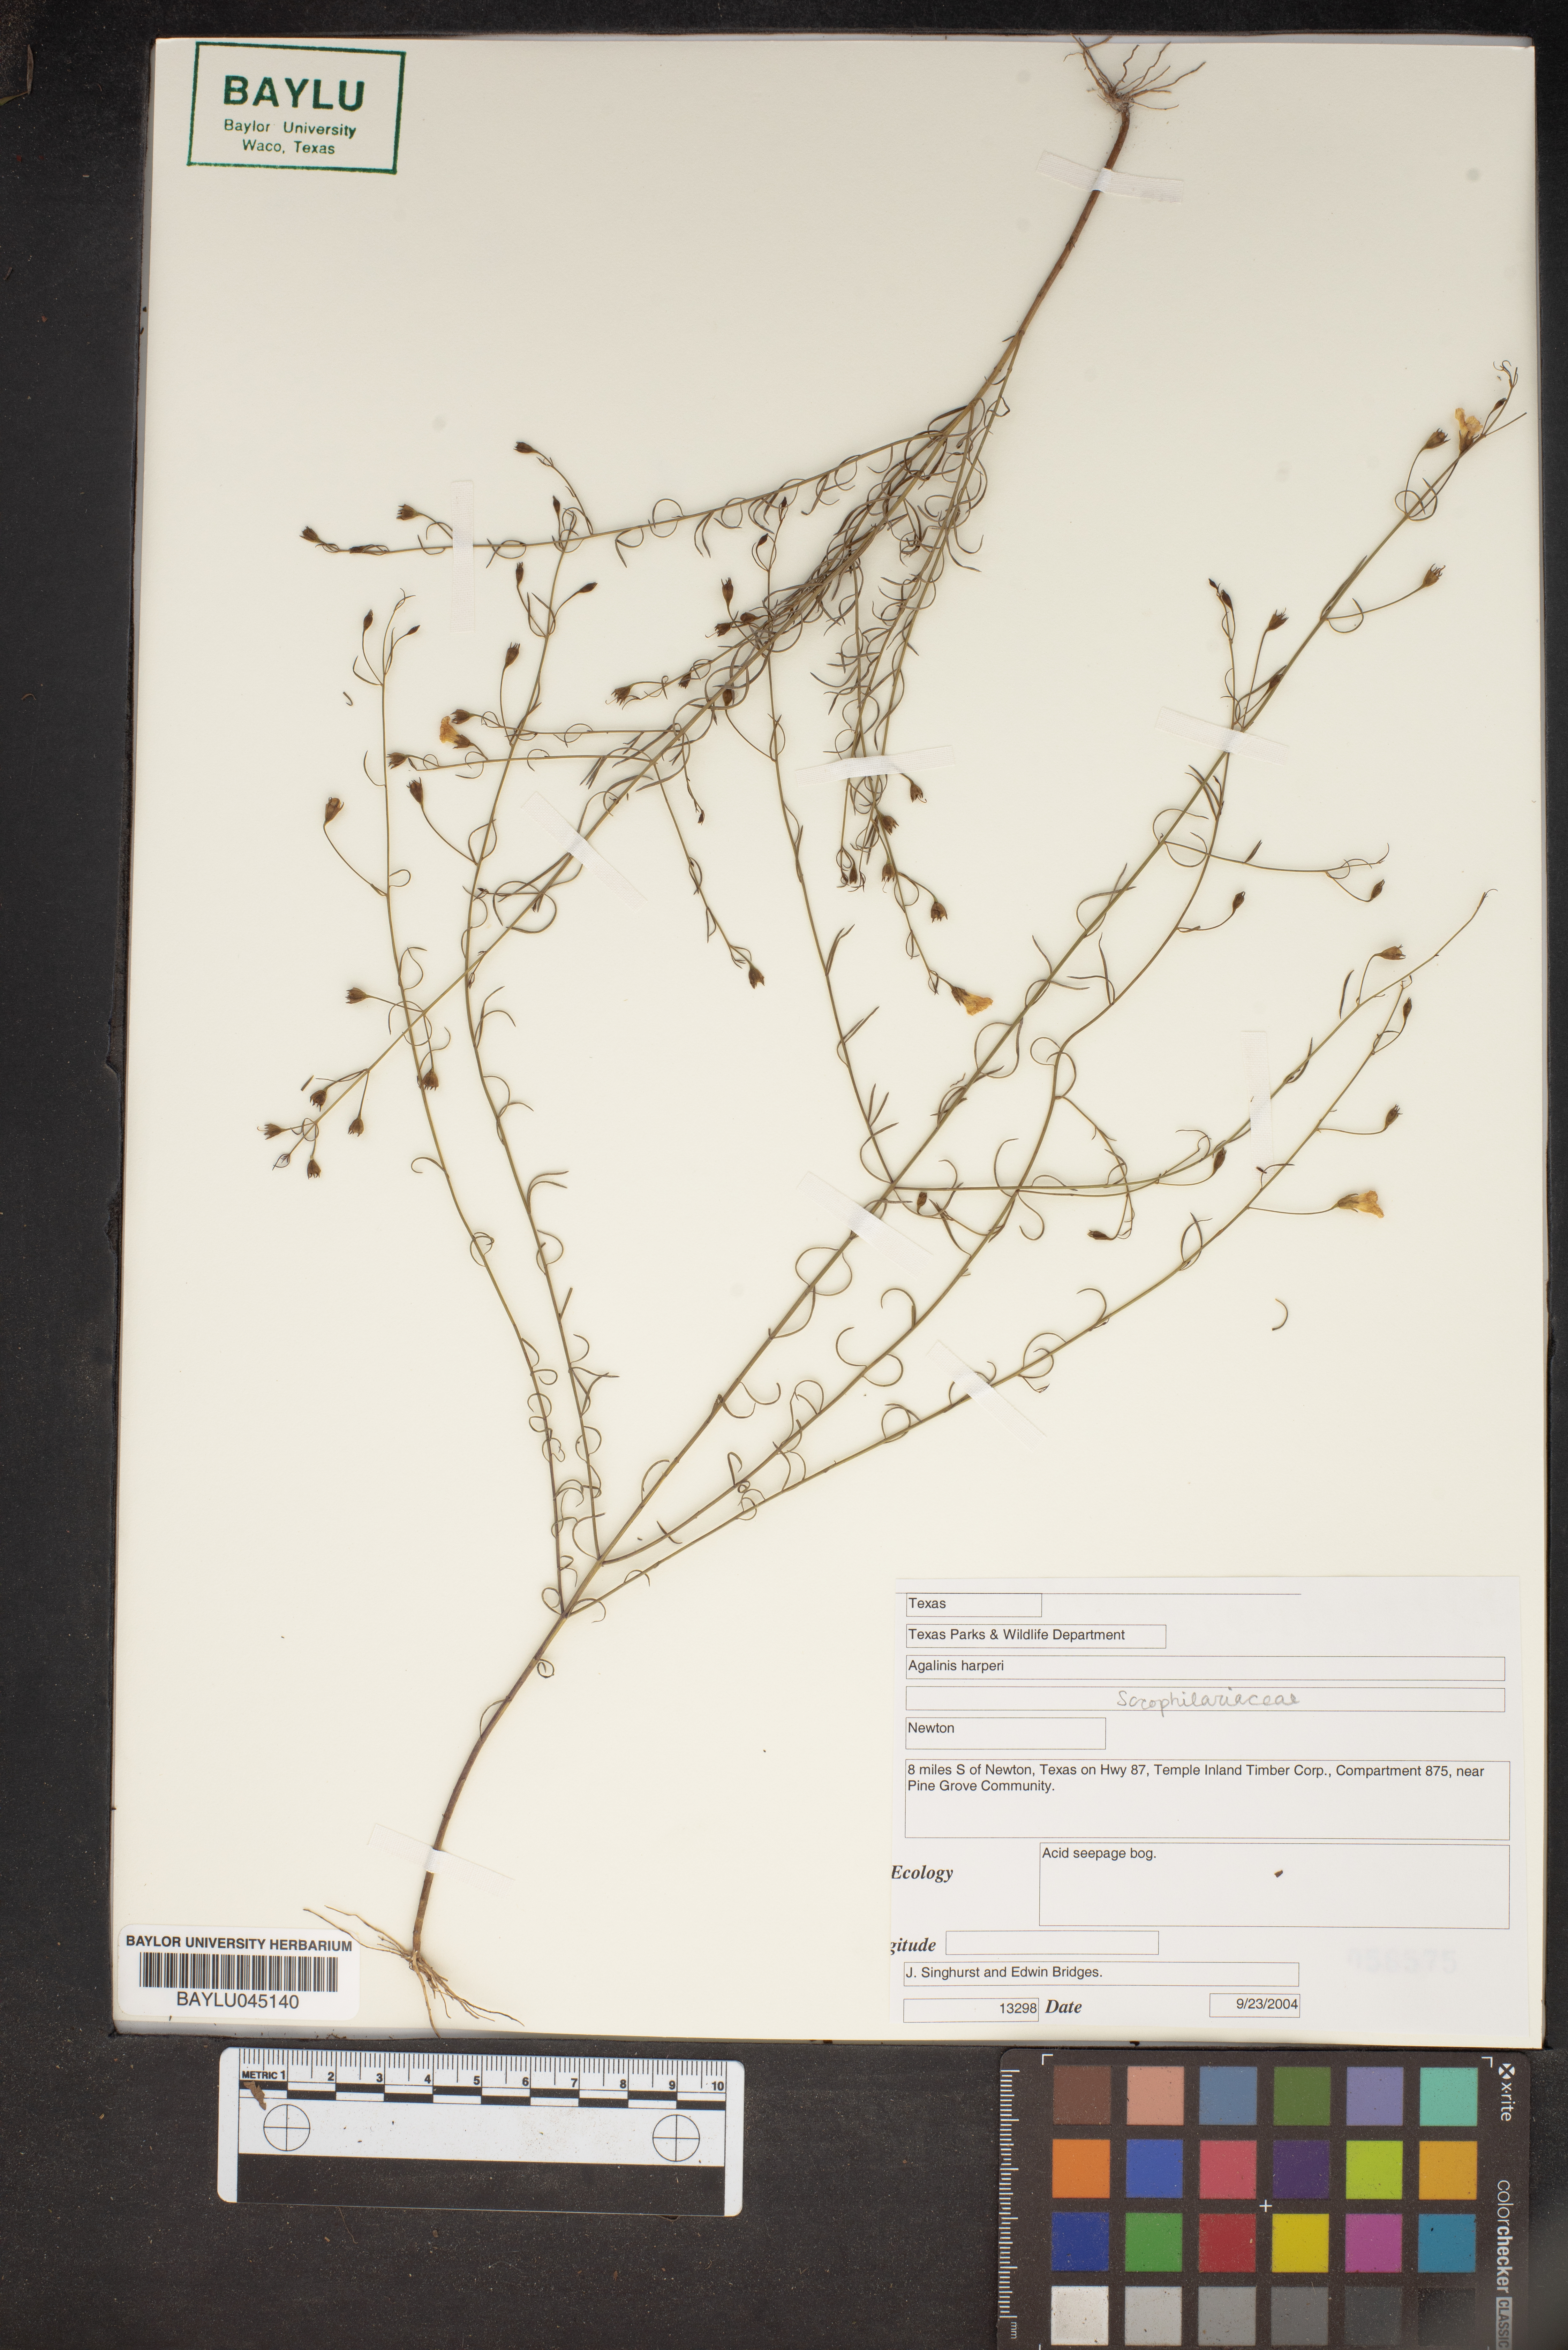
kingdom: Plantae
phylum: Tracheophyta
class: Magnoliopsida
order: Lamiales
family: Orobanchaceae
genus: Agalinis
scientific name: Agalinis harperi
